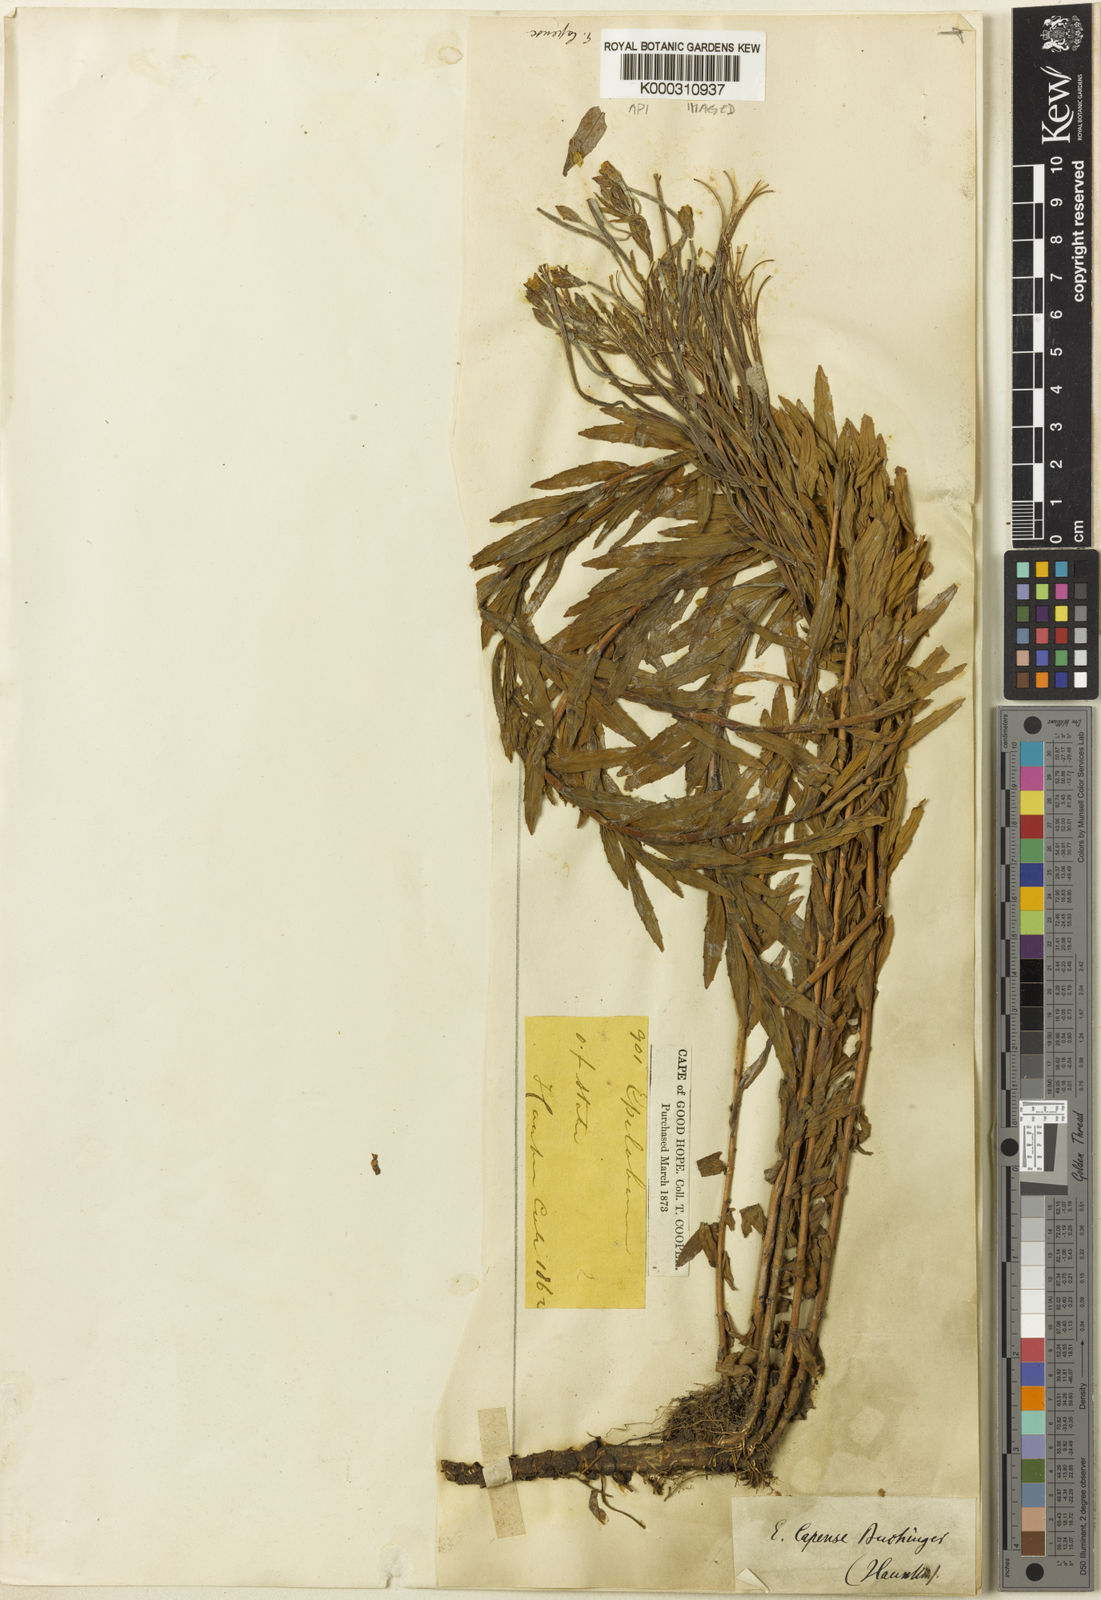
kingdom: Plantae
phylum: Tracheophyta
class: Magnoliopsida
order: Myrtales
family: Onagraceae
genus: Epilobium
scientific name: Epilobium
